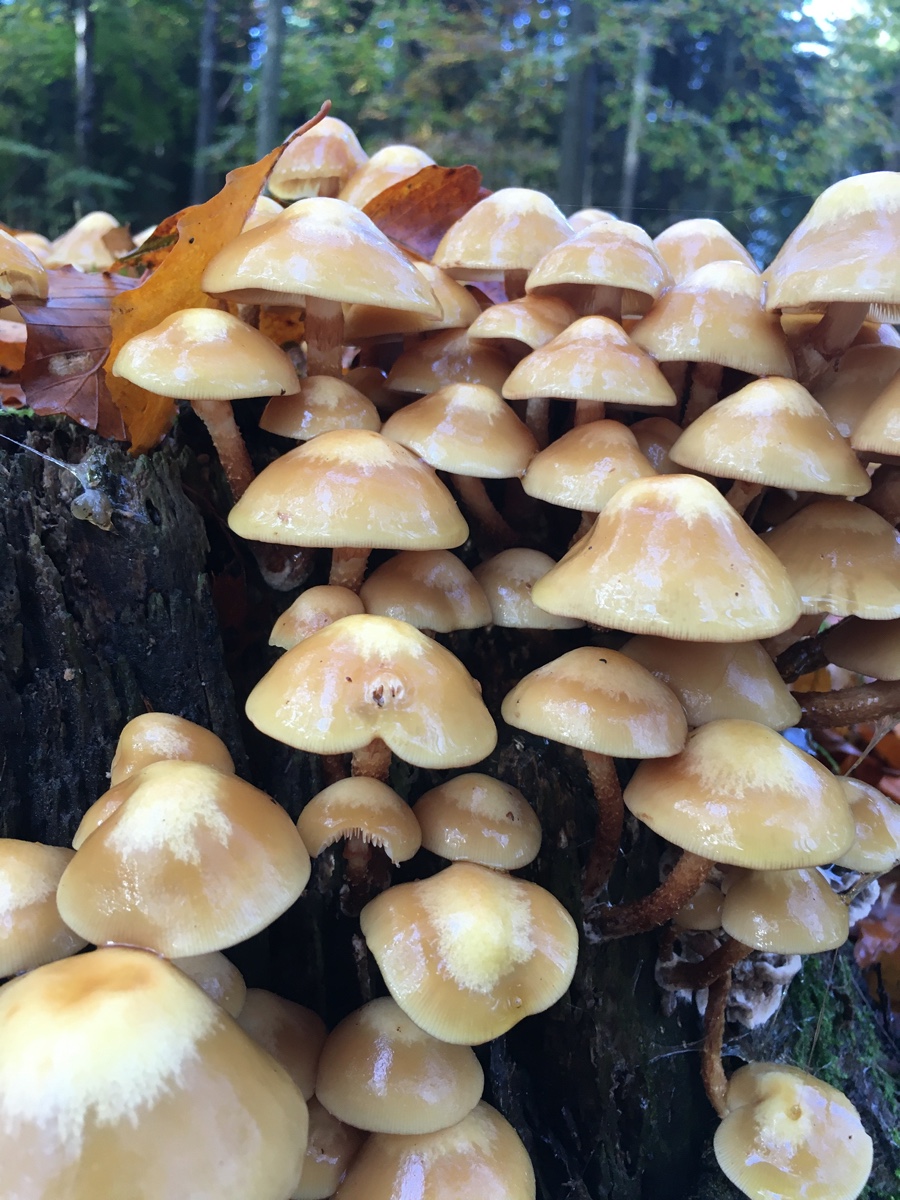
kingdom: Fungi
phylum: Basidiomycota
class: Agaricomycetes
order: Agaricales
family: Strophariaceae
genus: Kuehneromyces
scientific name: Kuehneromyces mutabilis
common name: foranderlig skælhat
